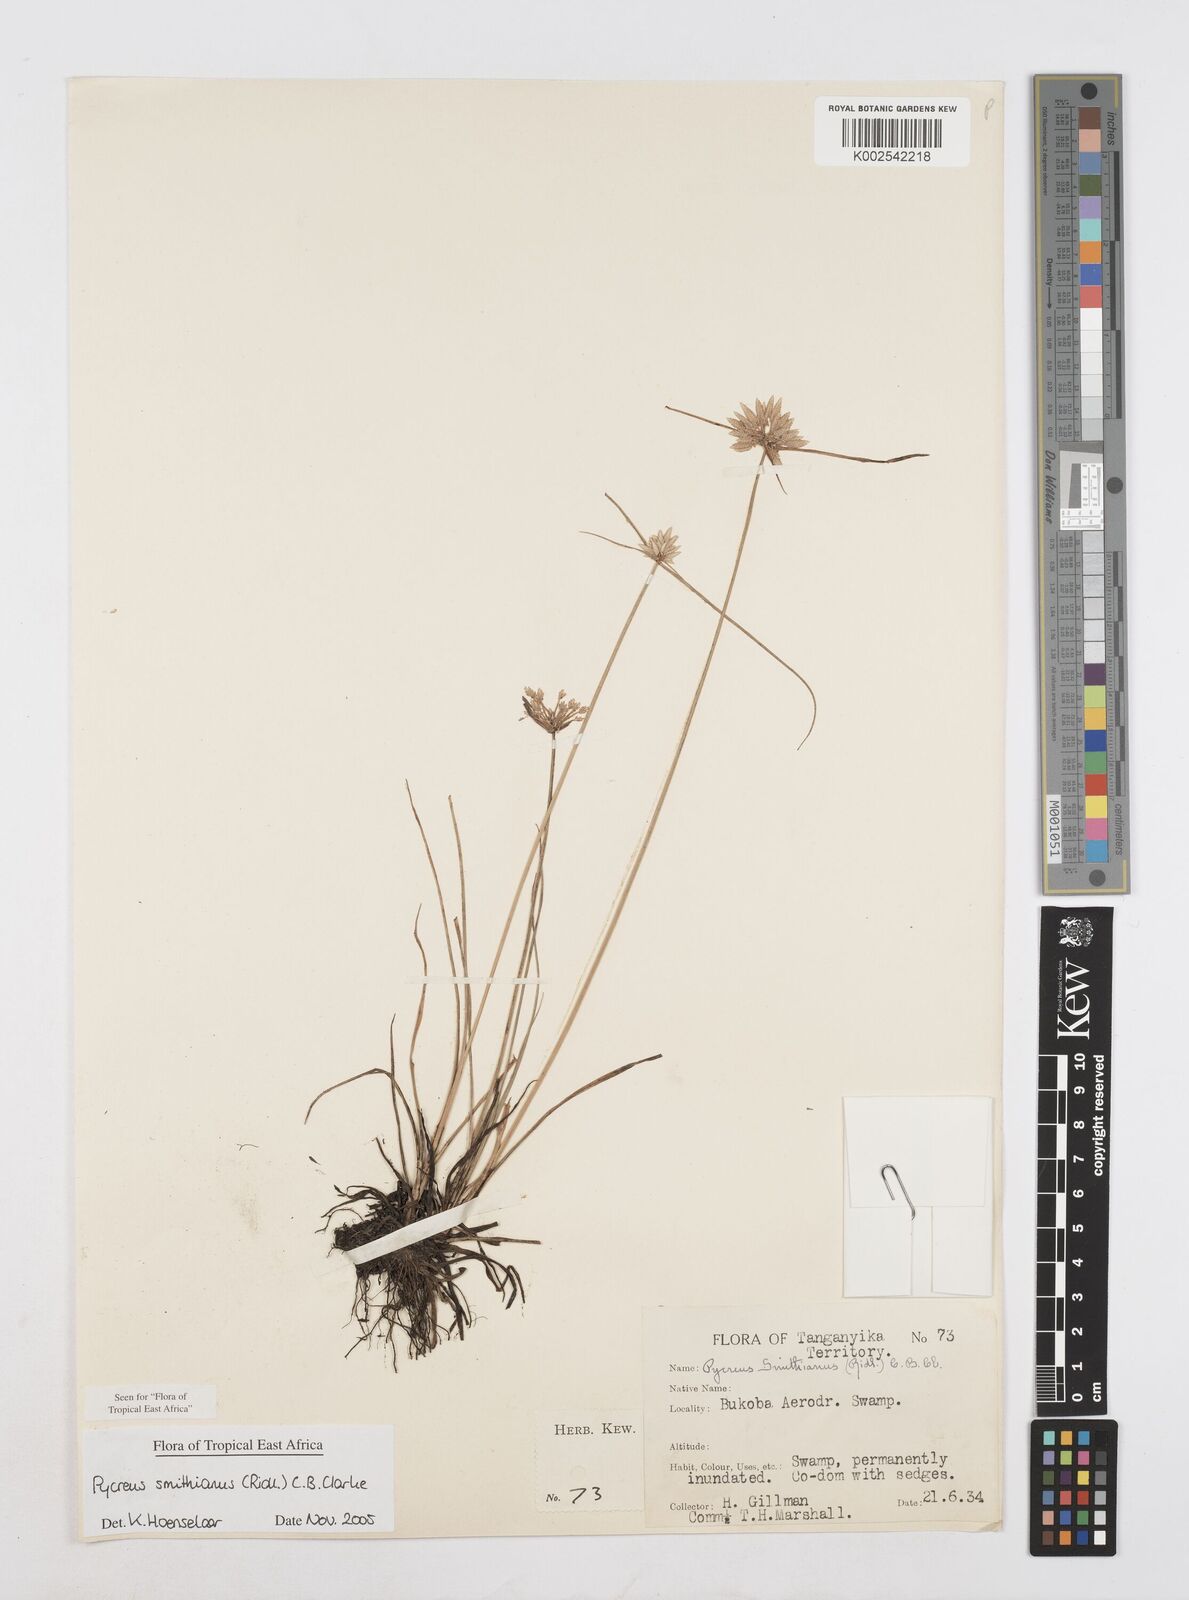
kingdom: Plantae
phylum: Tracheophyta
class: Liliopsida
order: Poales
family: Cyperaceae
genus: Cyperus
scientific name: Cyperus smithianus
